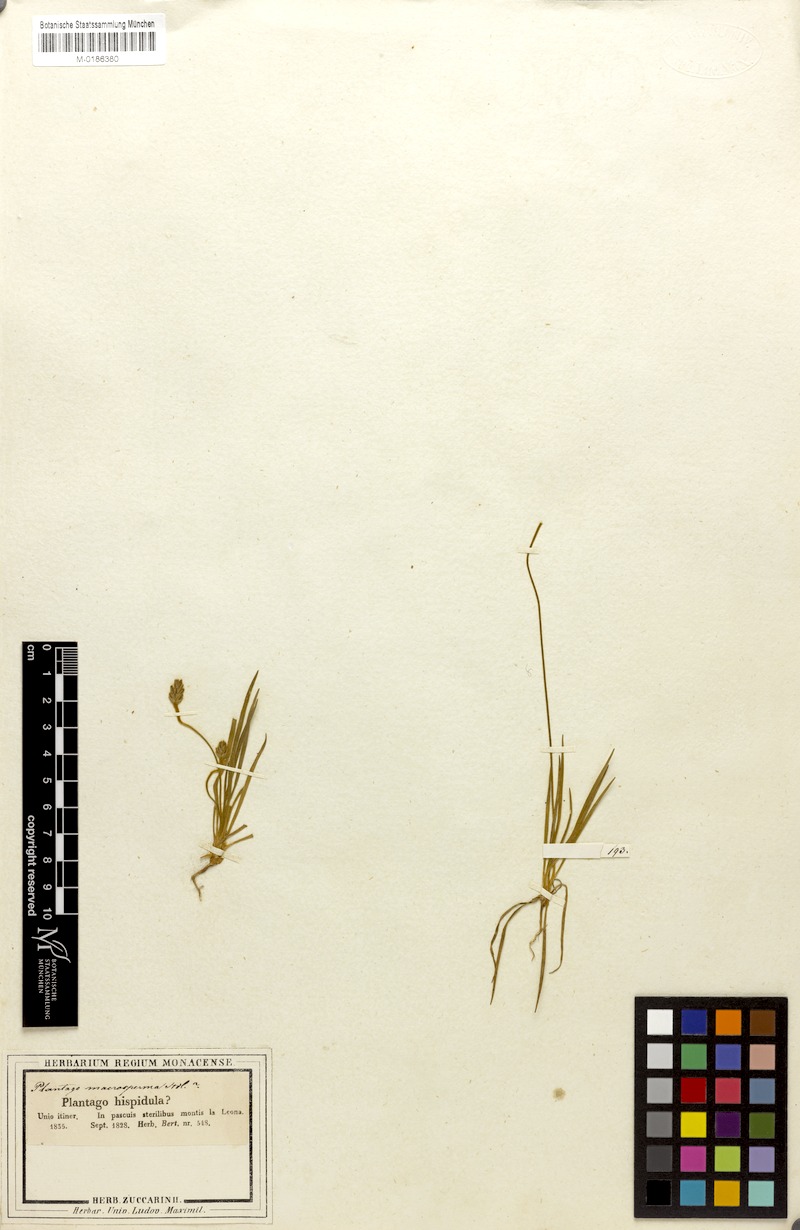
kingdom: Plantae
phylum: Tracheophyta
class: Magnoliopsida
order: Lamiales
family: Plantaginaceae
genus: Plantago
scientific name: Plantago hispidula
